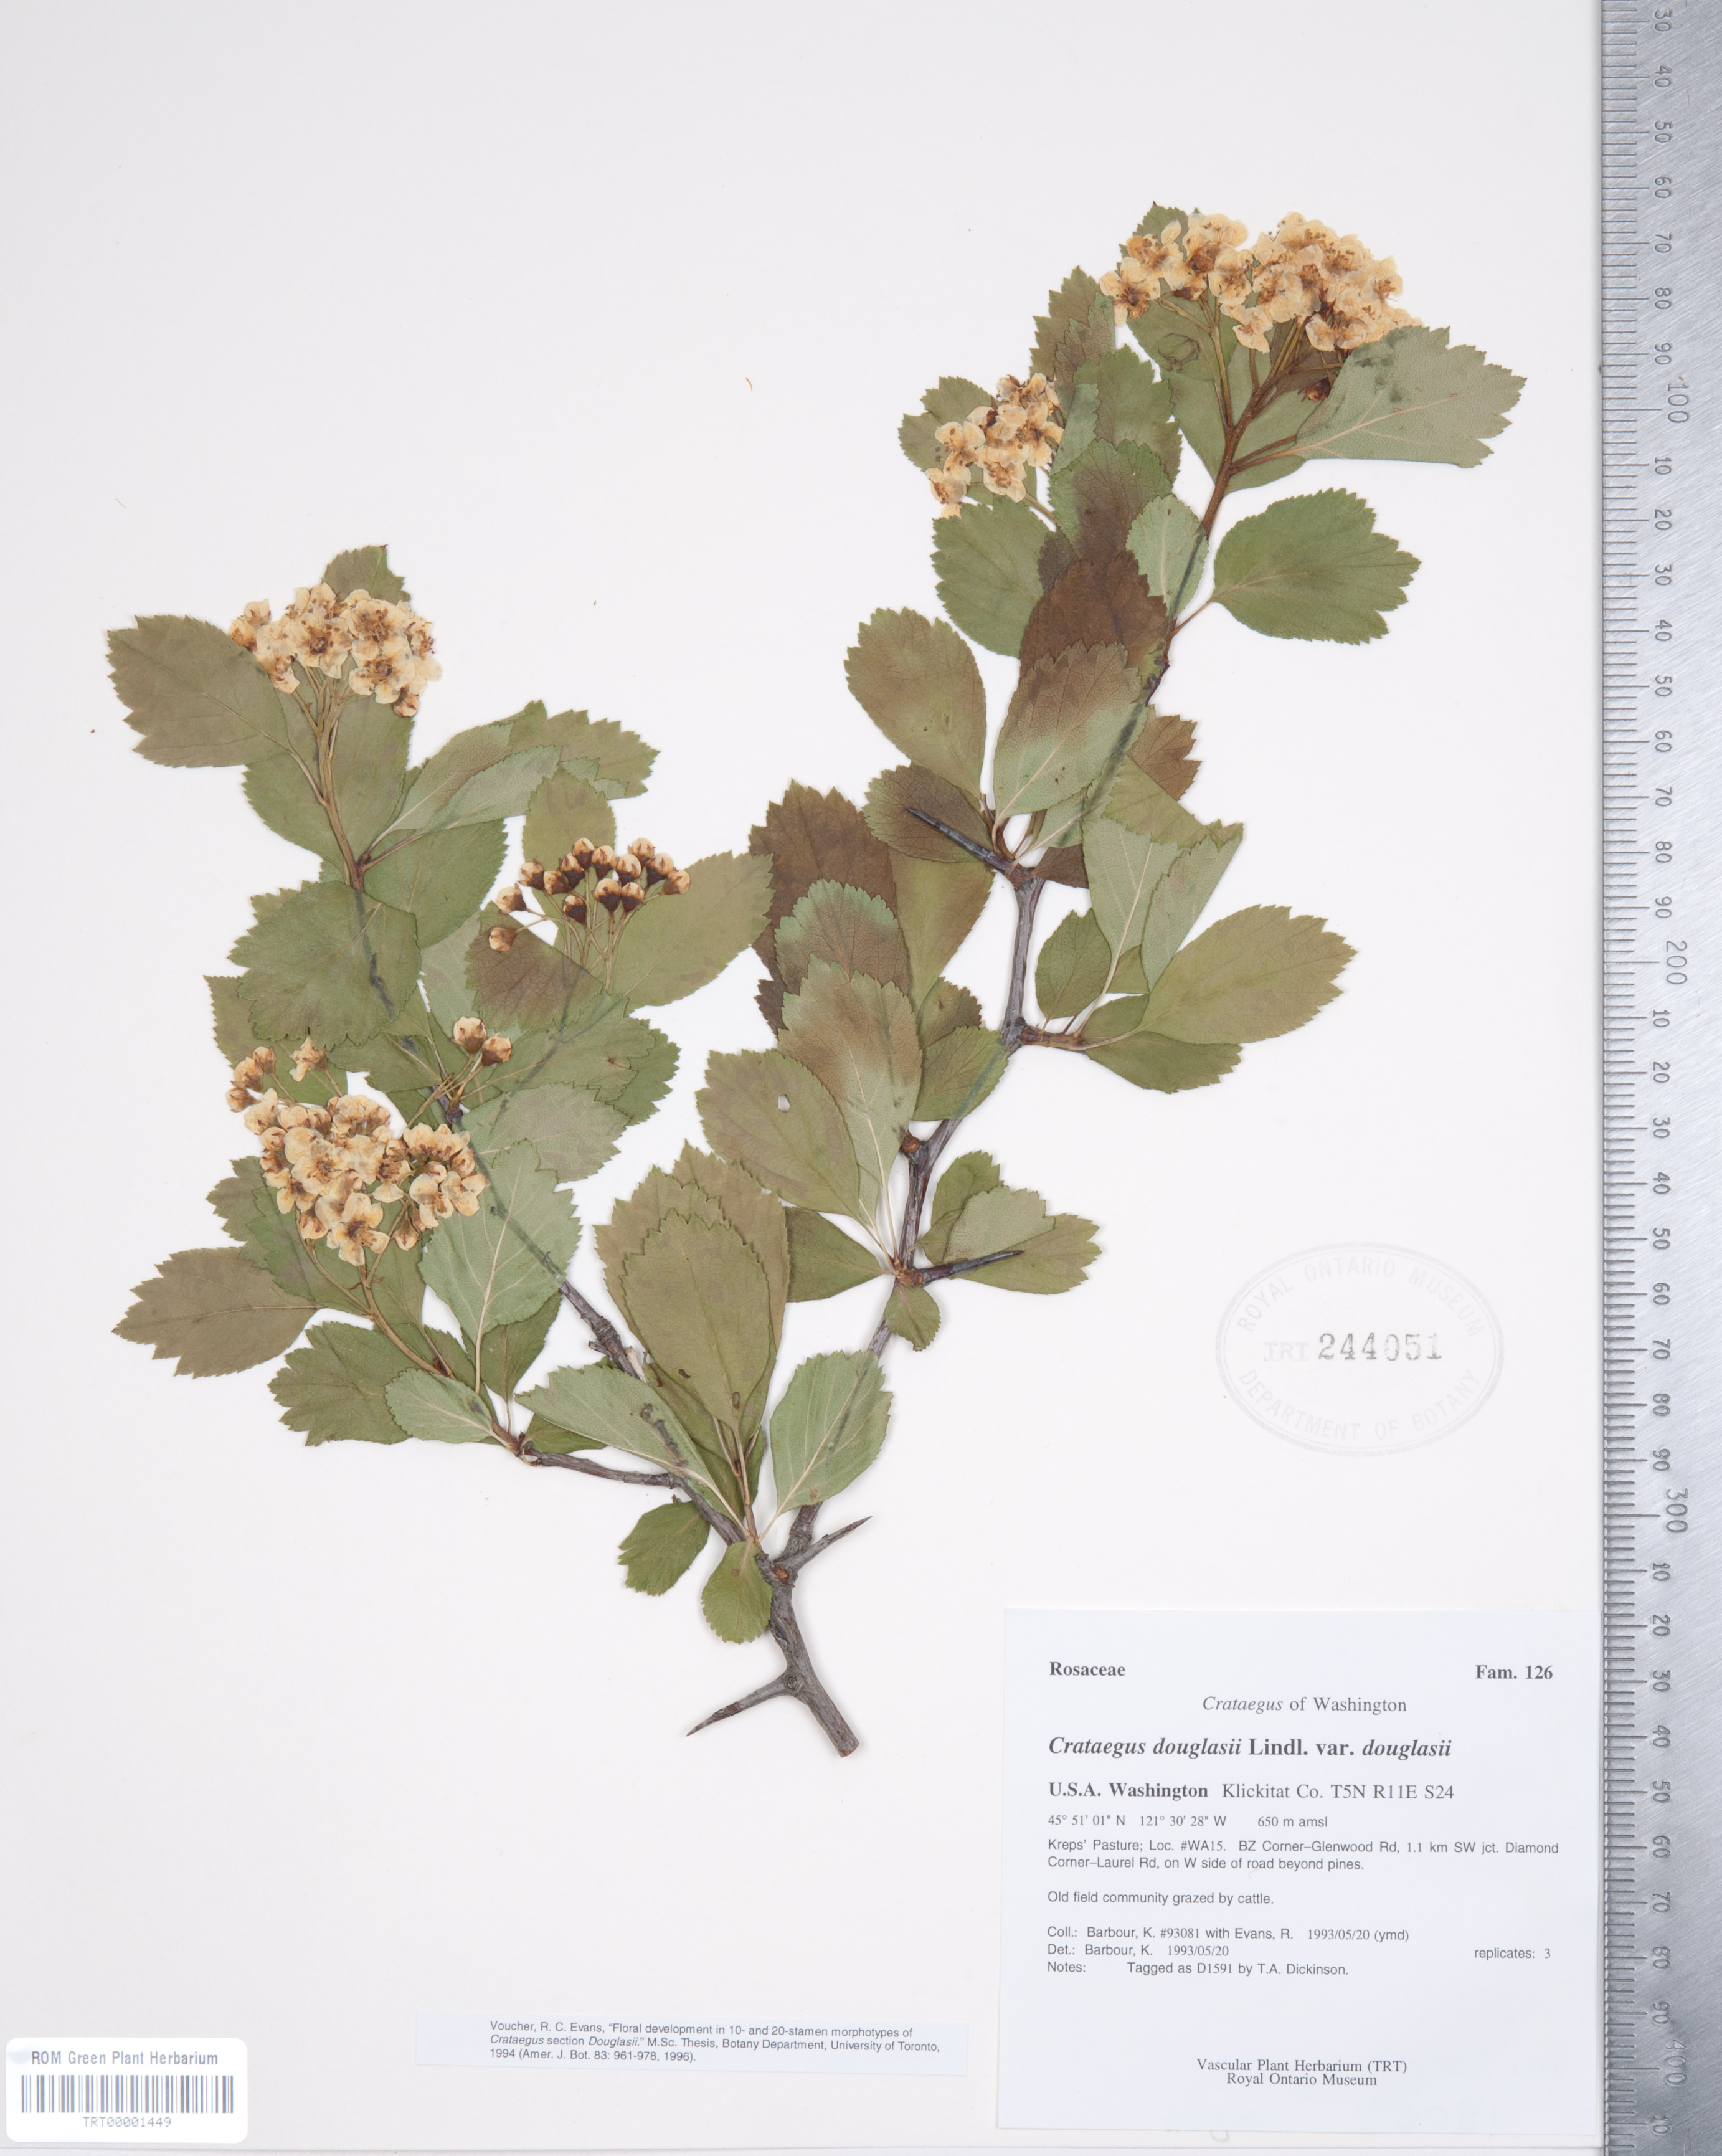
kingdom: Plantae
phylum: Tracheophyta
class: Magnoliopsida
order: Rosales
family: Rosaceae
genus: Crataegus
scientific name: Crataegus douglasii
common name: Black hawthorn
